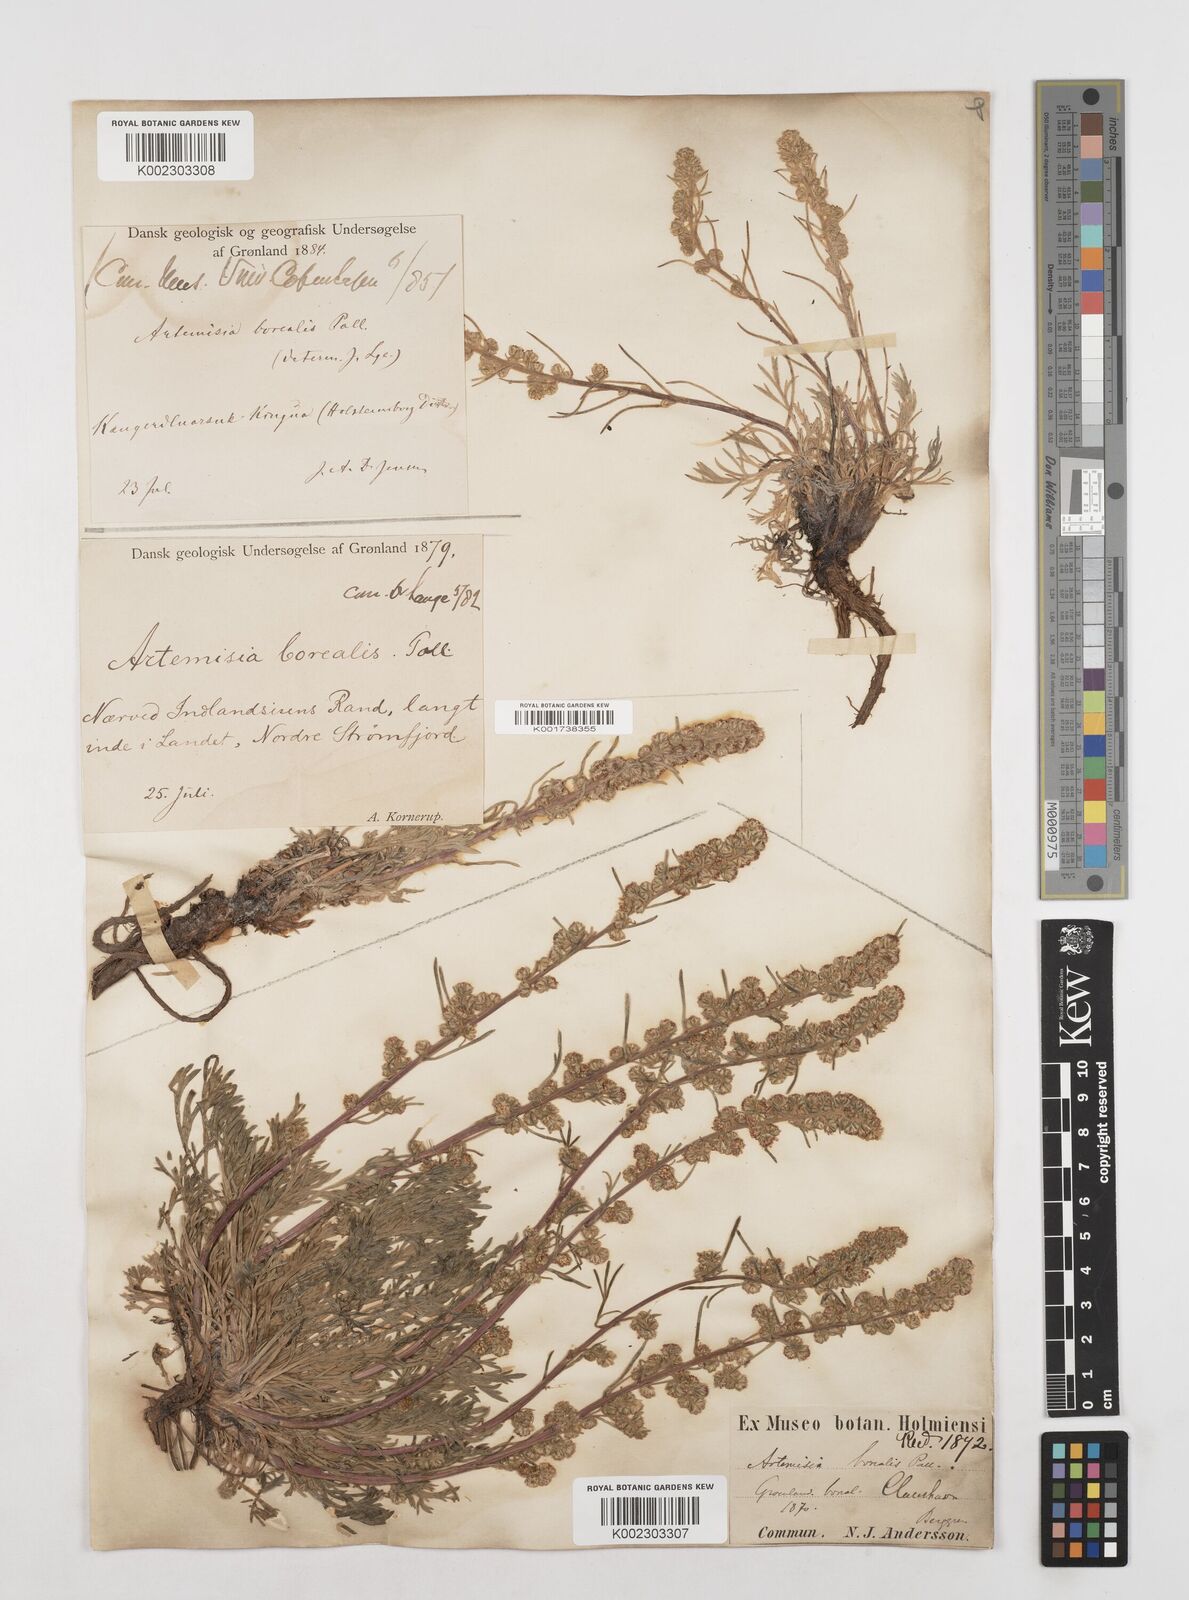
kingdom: Plantae
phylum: Tracheophyta
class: Magnoliopsida
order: Asterales
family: Asteraceae
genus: Artemisia
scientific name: Artemisia borealis
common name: Boreal sage
